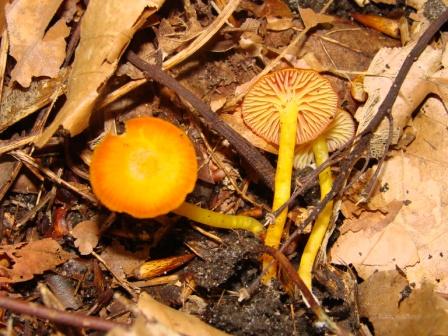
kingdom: Fungi
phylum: Basidiomycota
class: Agaricomycetes
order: Agaricales
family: Hygrophoraceae
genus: Hygrocybe
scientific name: Hygrocybe insipida
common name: liden vokshat
